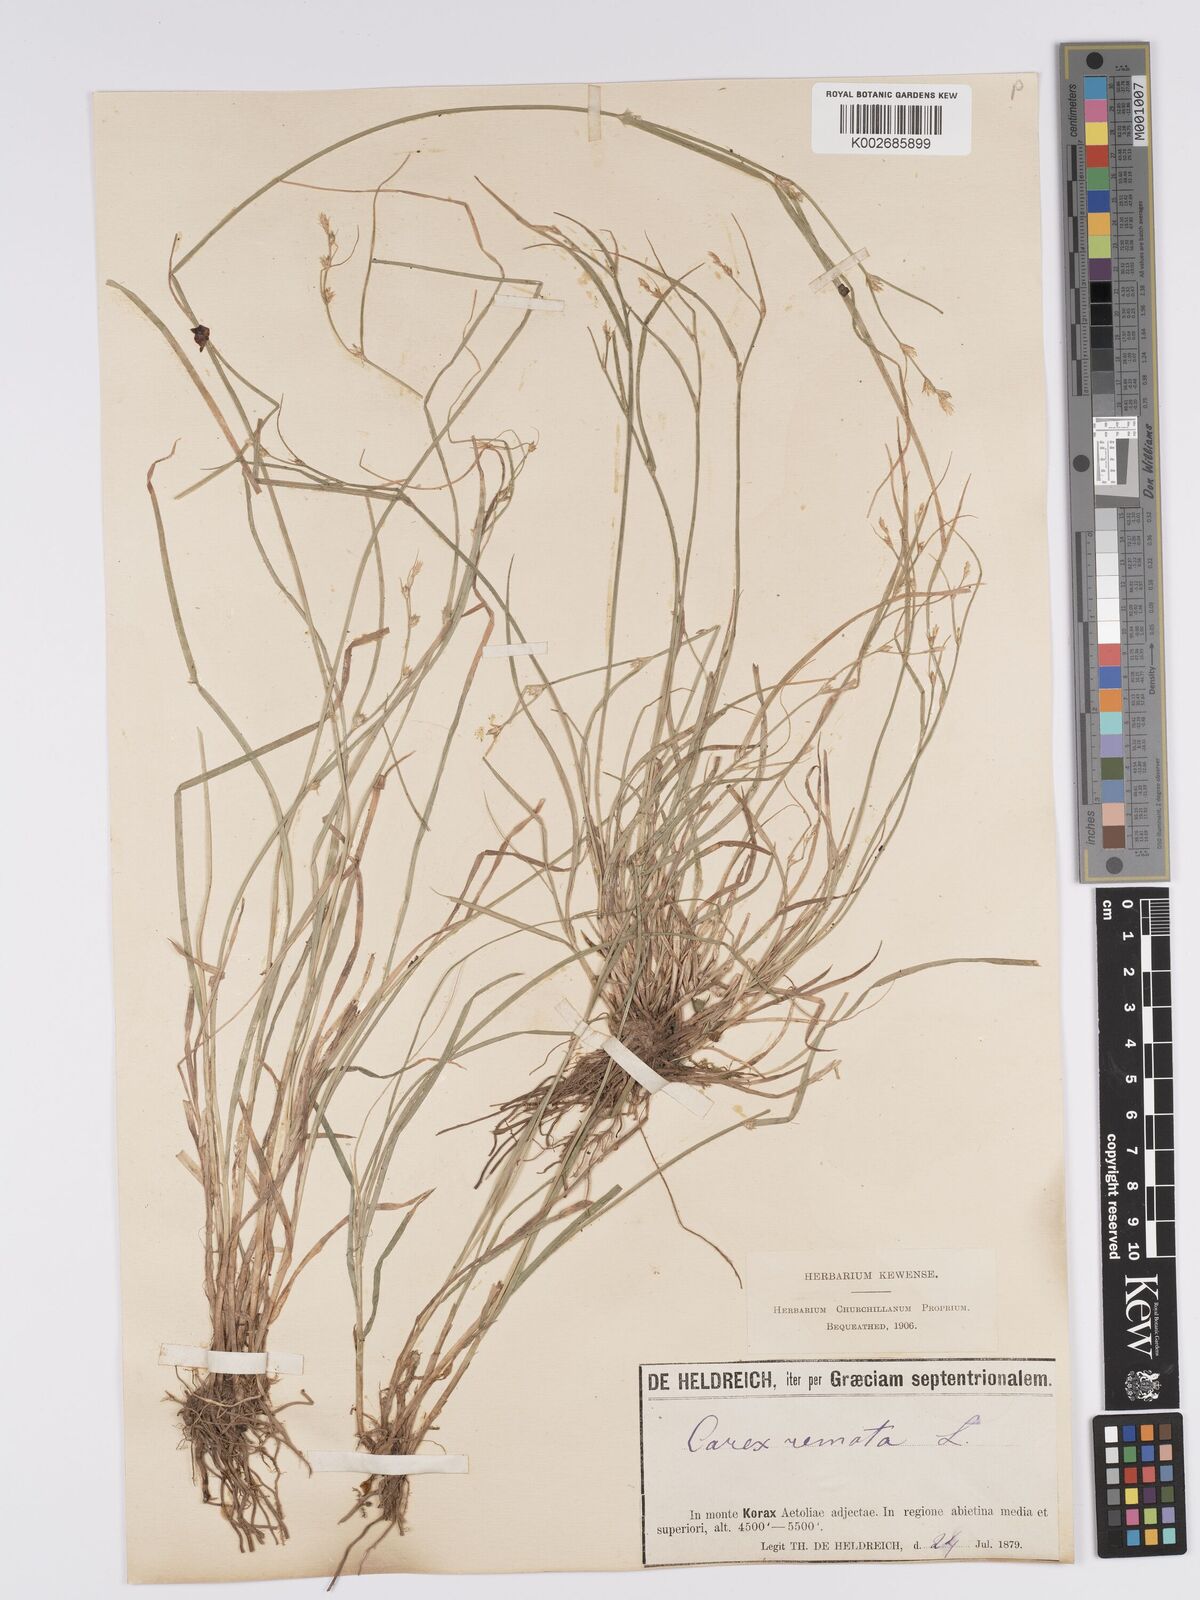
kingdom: Plantae
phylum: Tracheophyta
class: Liliopsida
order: Poales
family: Cyperaceae
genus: Carex
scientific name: Carex remota
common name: Remote sedge
